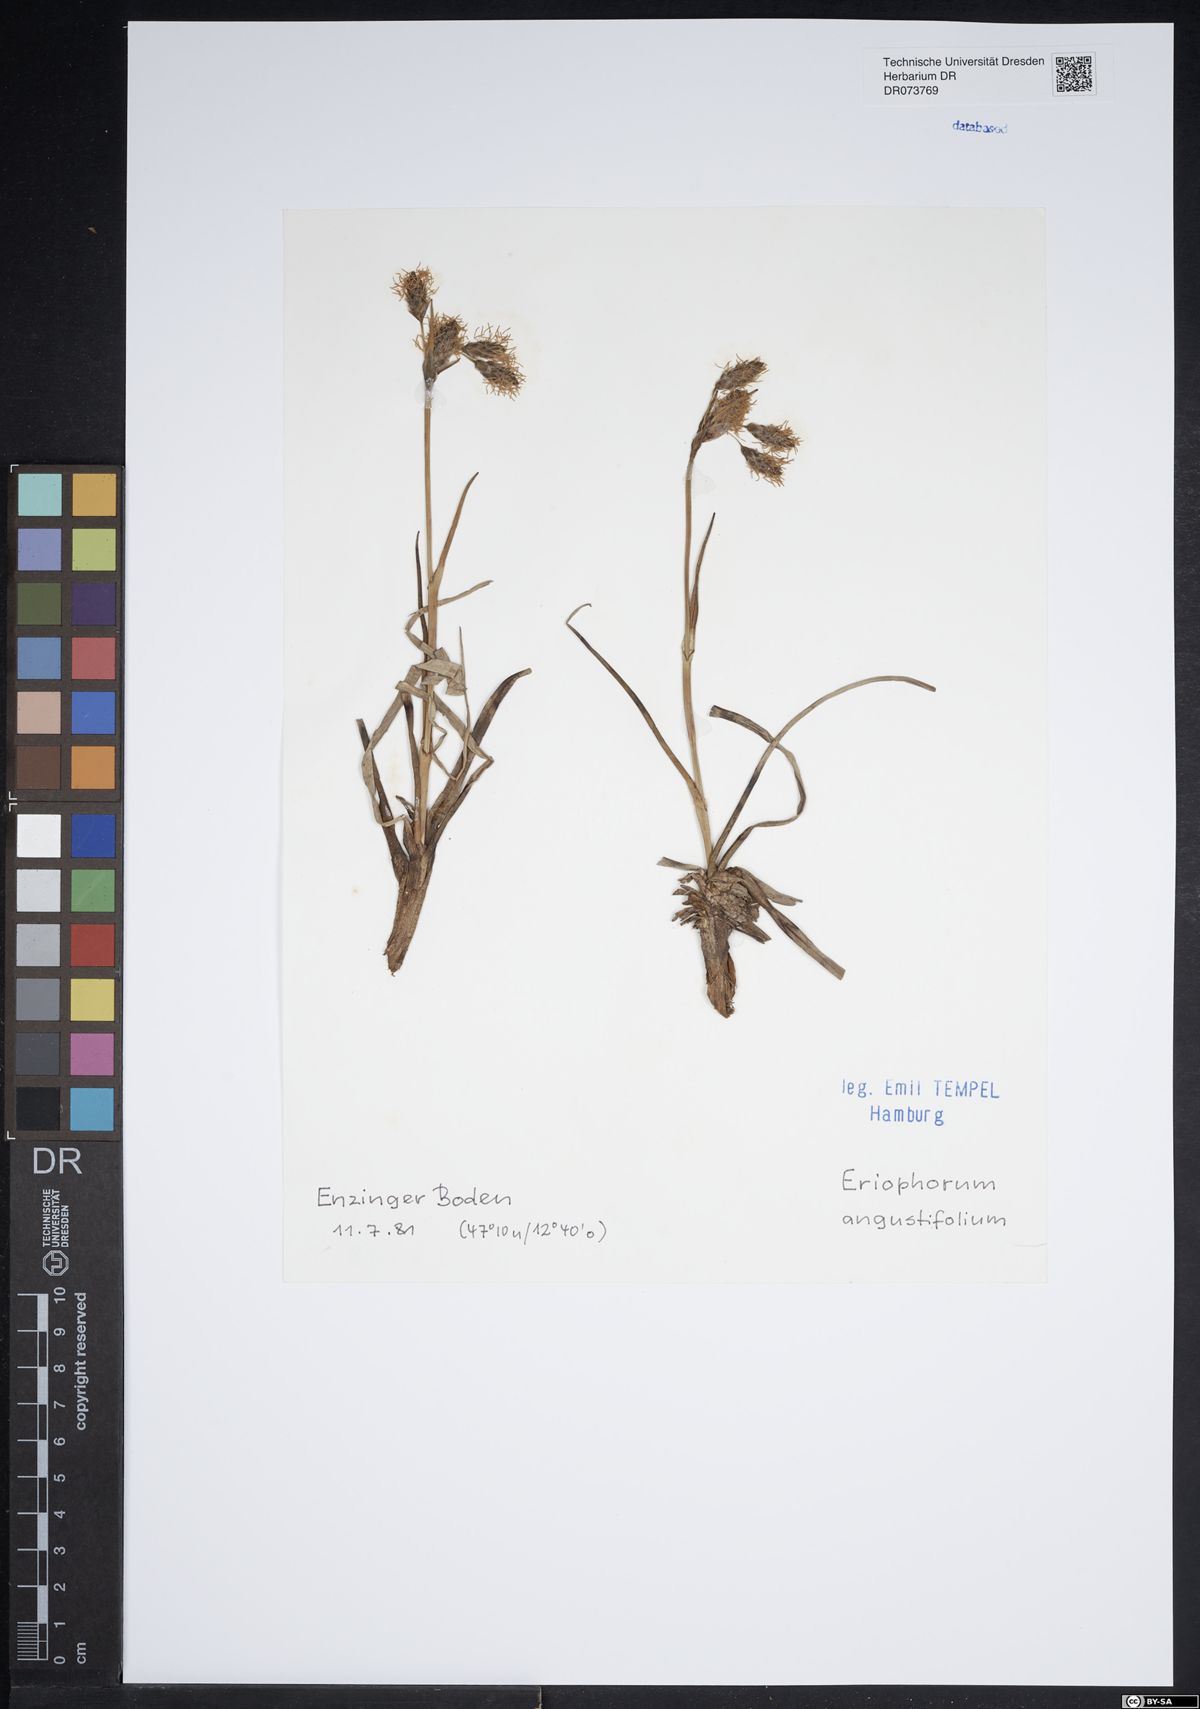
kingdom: Plantae
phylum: Tracheophyta
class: Liliopsida
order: Poales
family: Cyperaceae
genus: Eriophorum
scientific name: Eriophorum angustifolium
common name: Common cottongrass
